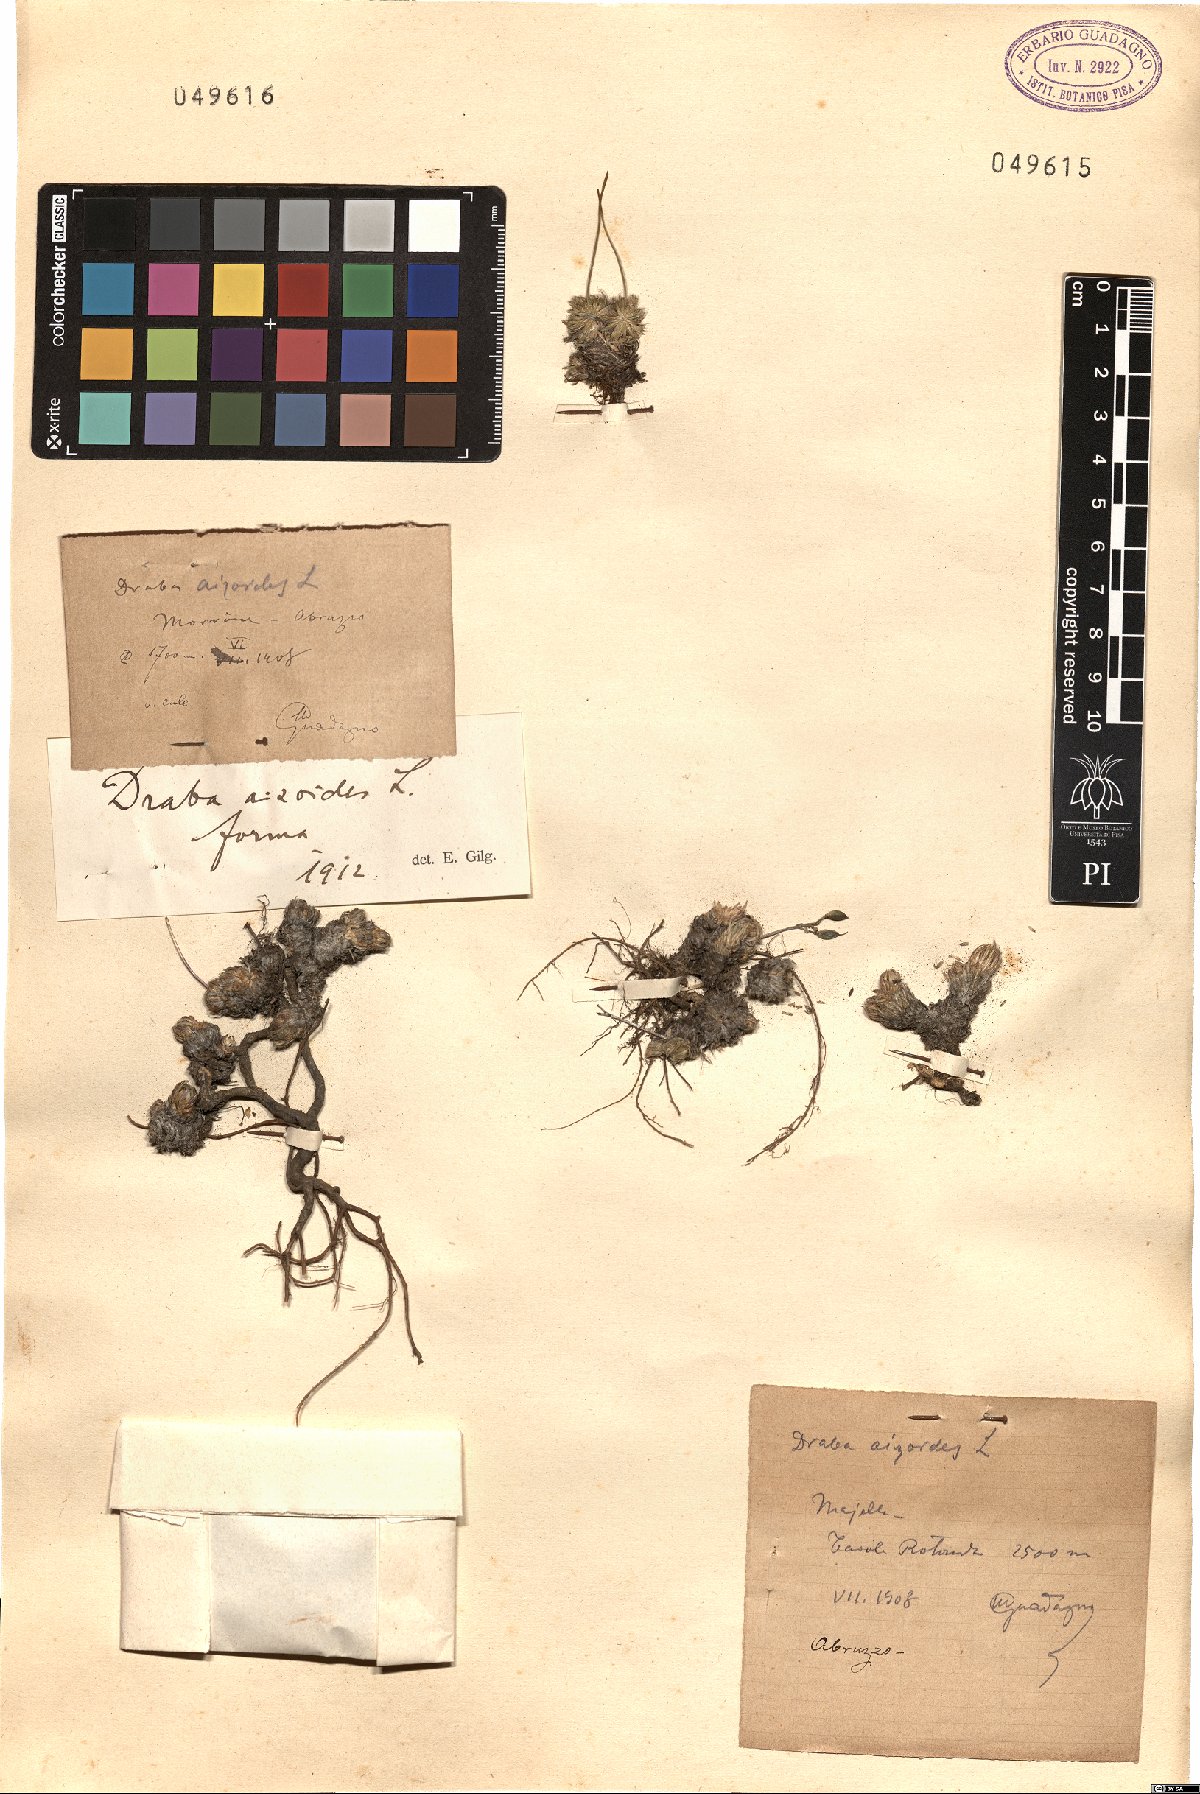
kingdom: Plantae
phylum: Tracheophyta
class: Magnoliopsida
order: Brassicales
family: Brassicaceae
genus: Draba
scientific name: Draba aizoides
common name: Yellow whitlowgrass
